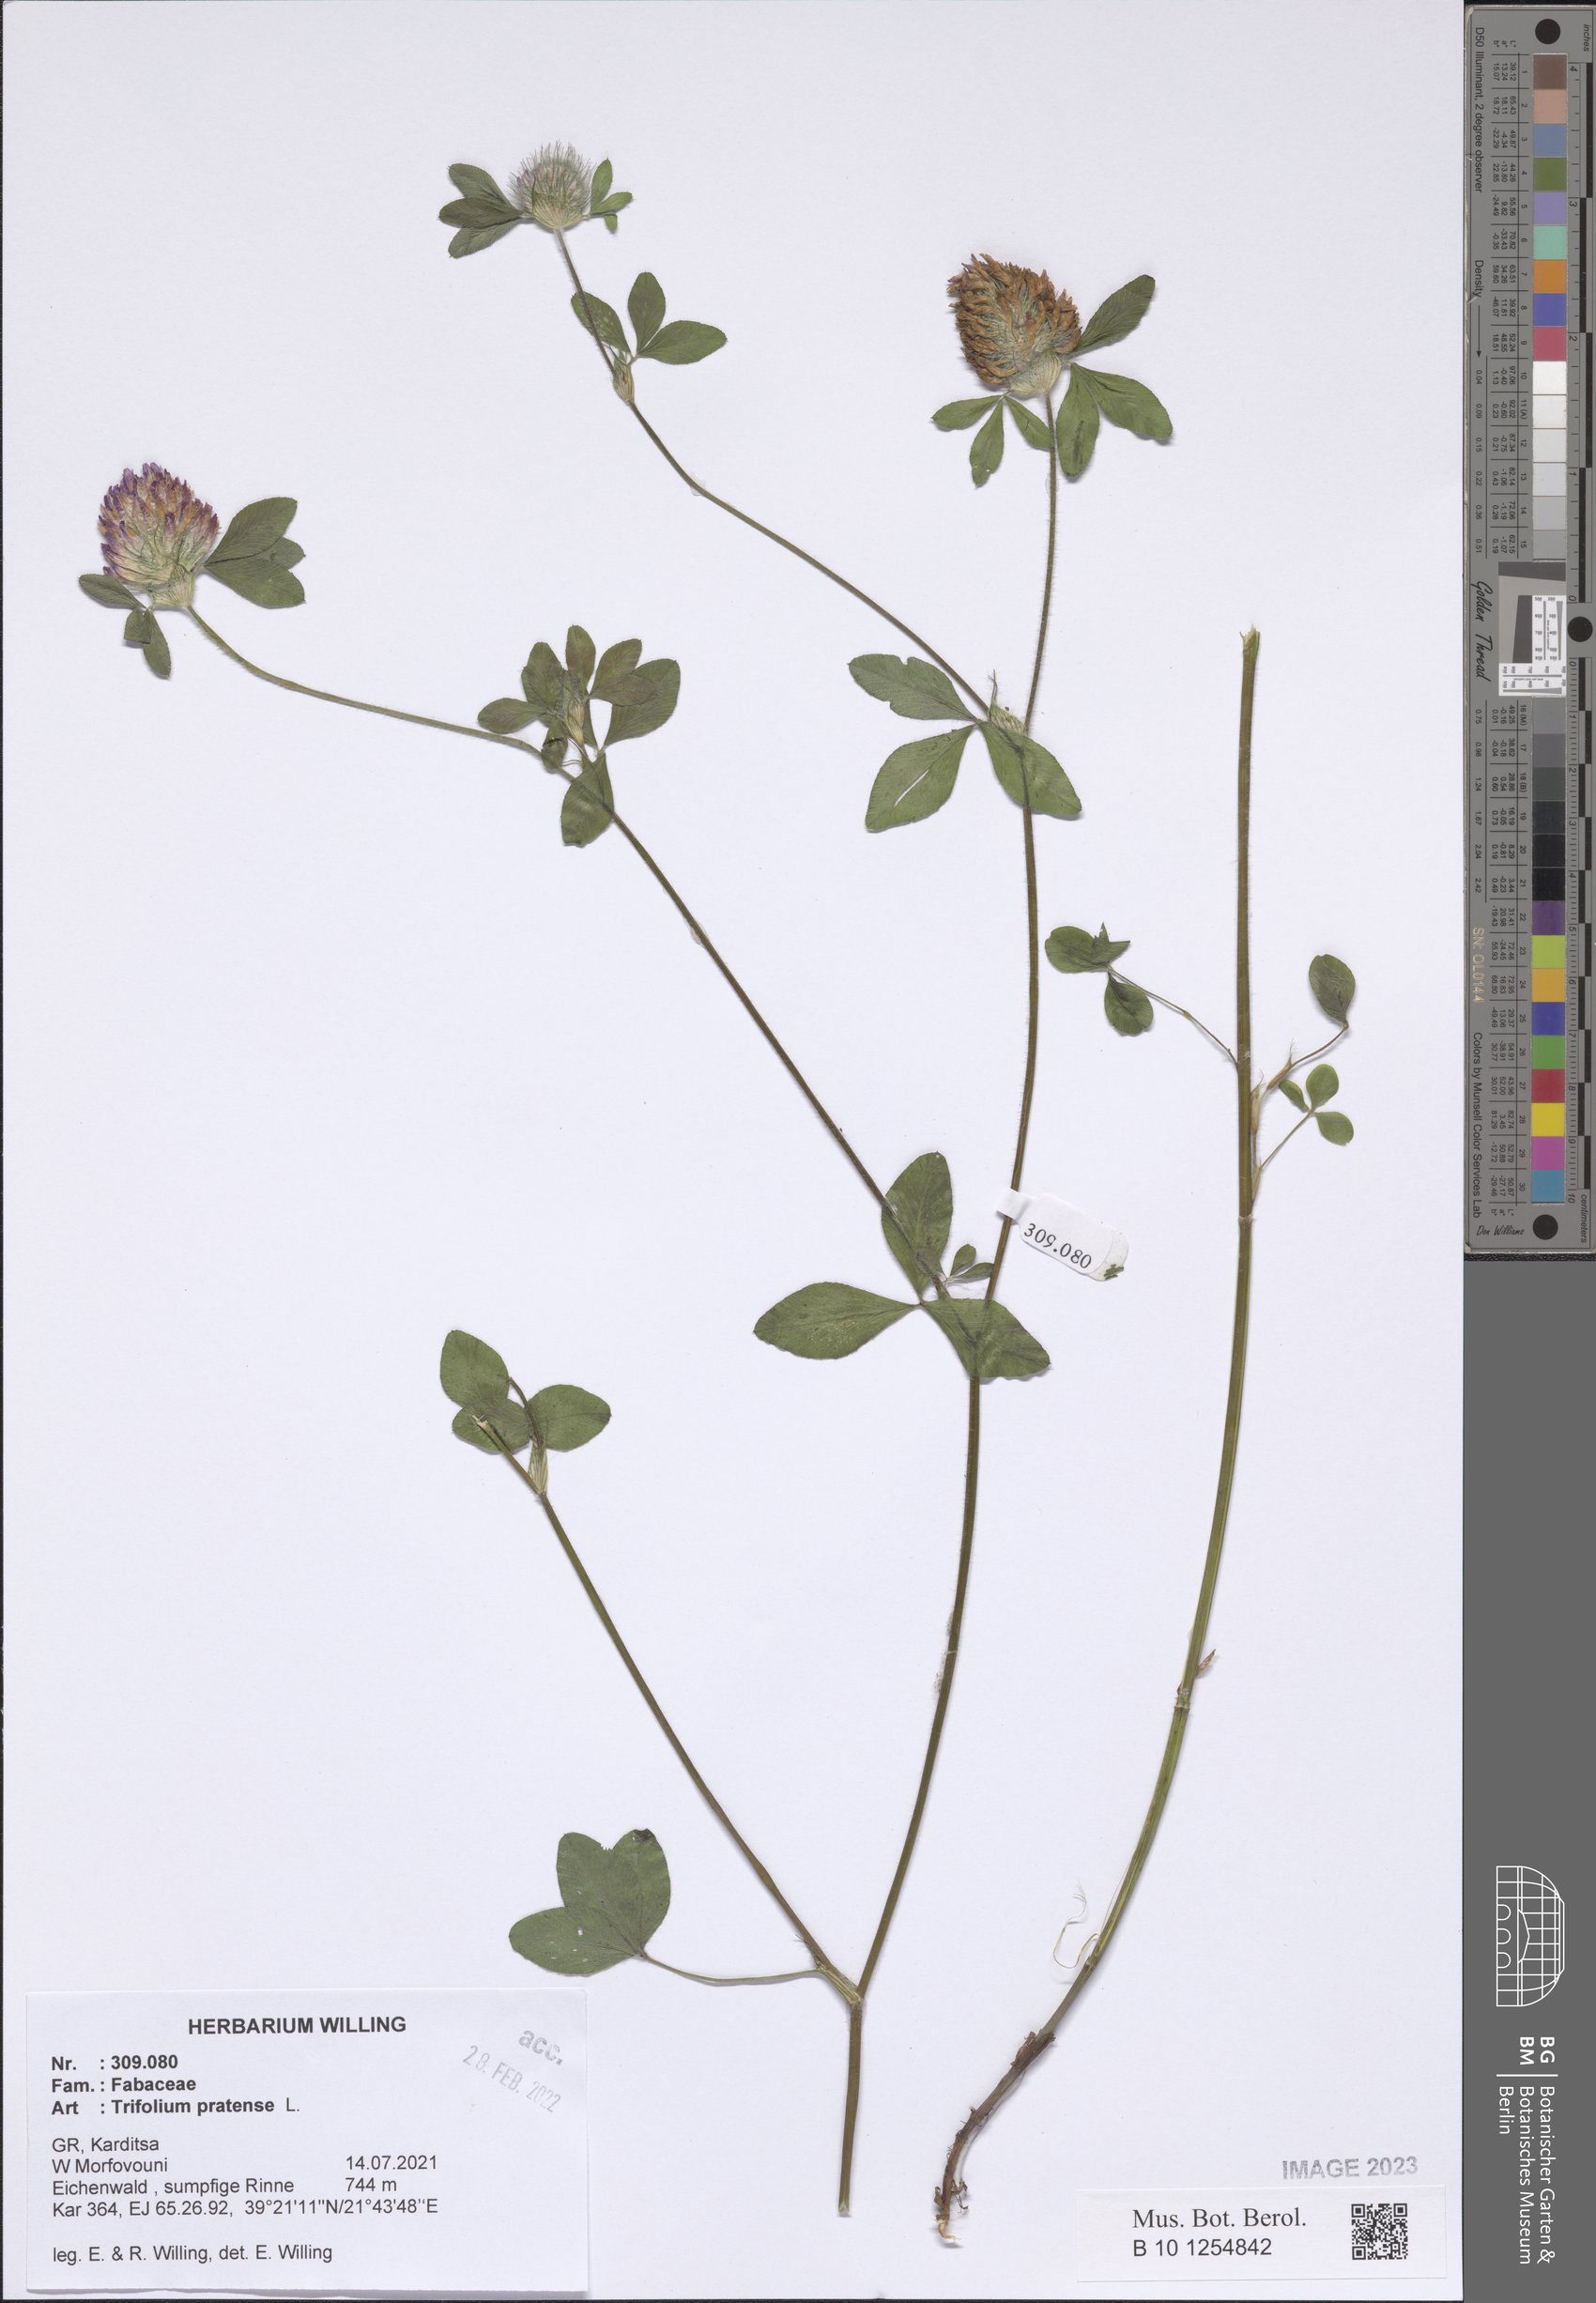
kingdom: Plantae
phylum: Tracheophyta
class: Magnoliopsida
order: Fabales
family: Fabaceae
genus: Trifolium
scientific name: Trifolium pratense
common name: Red clover
